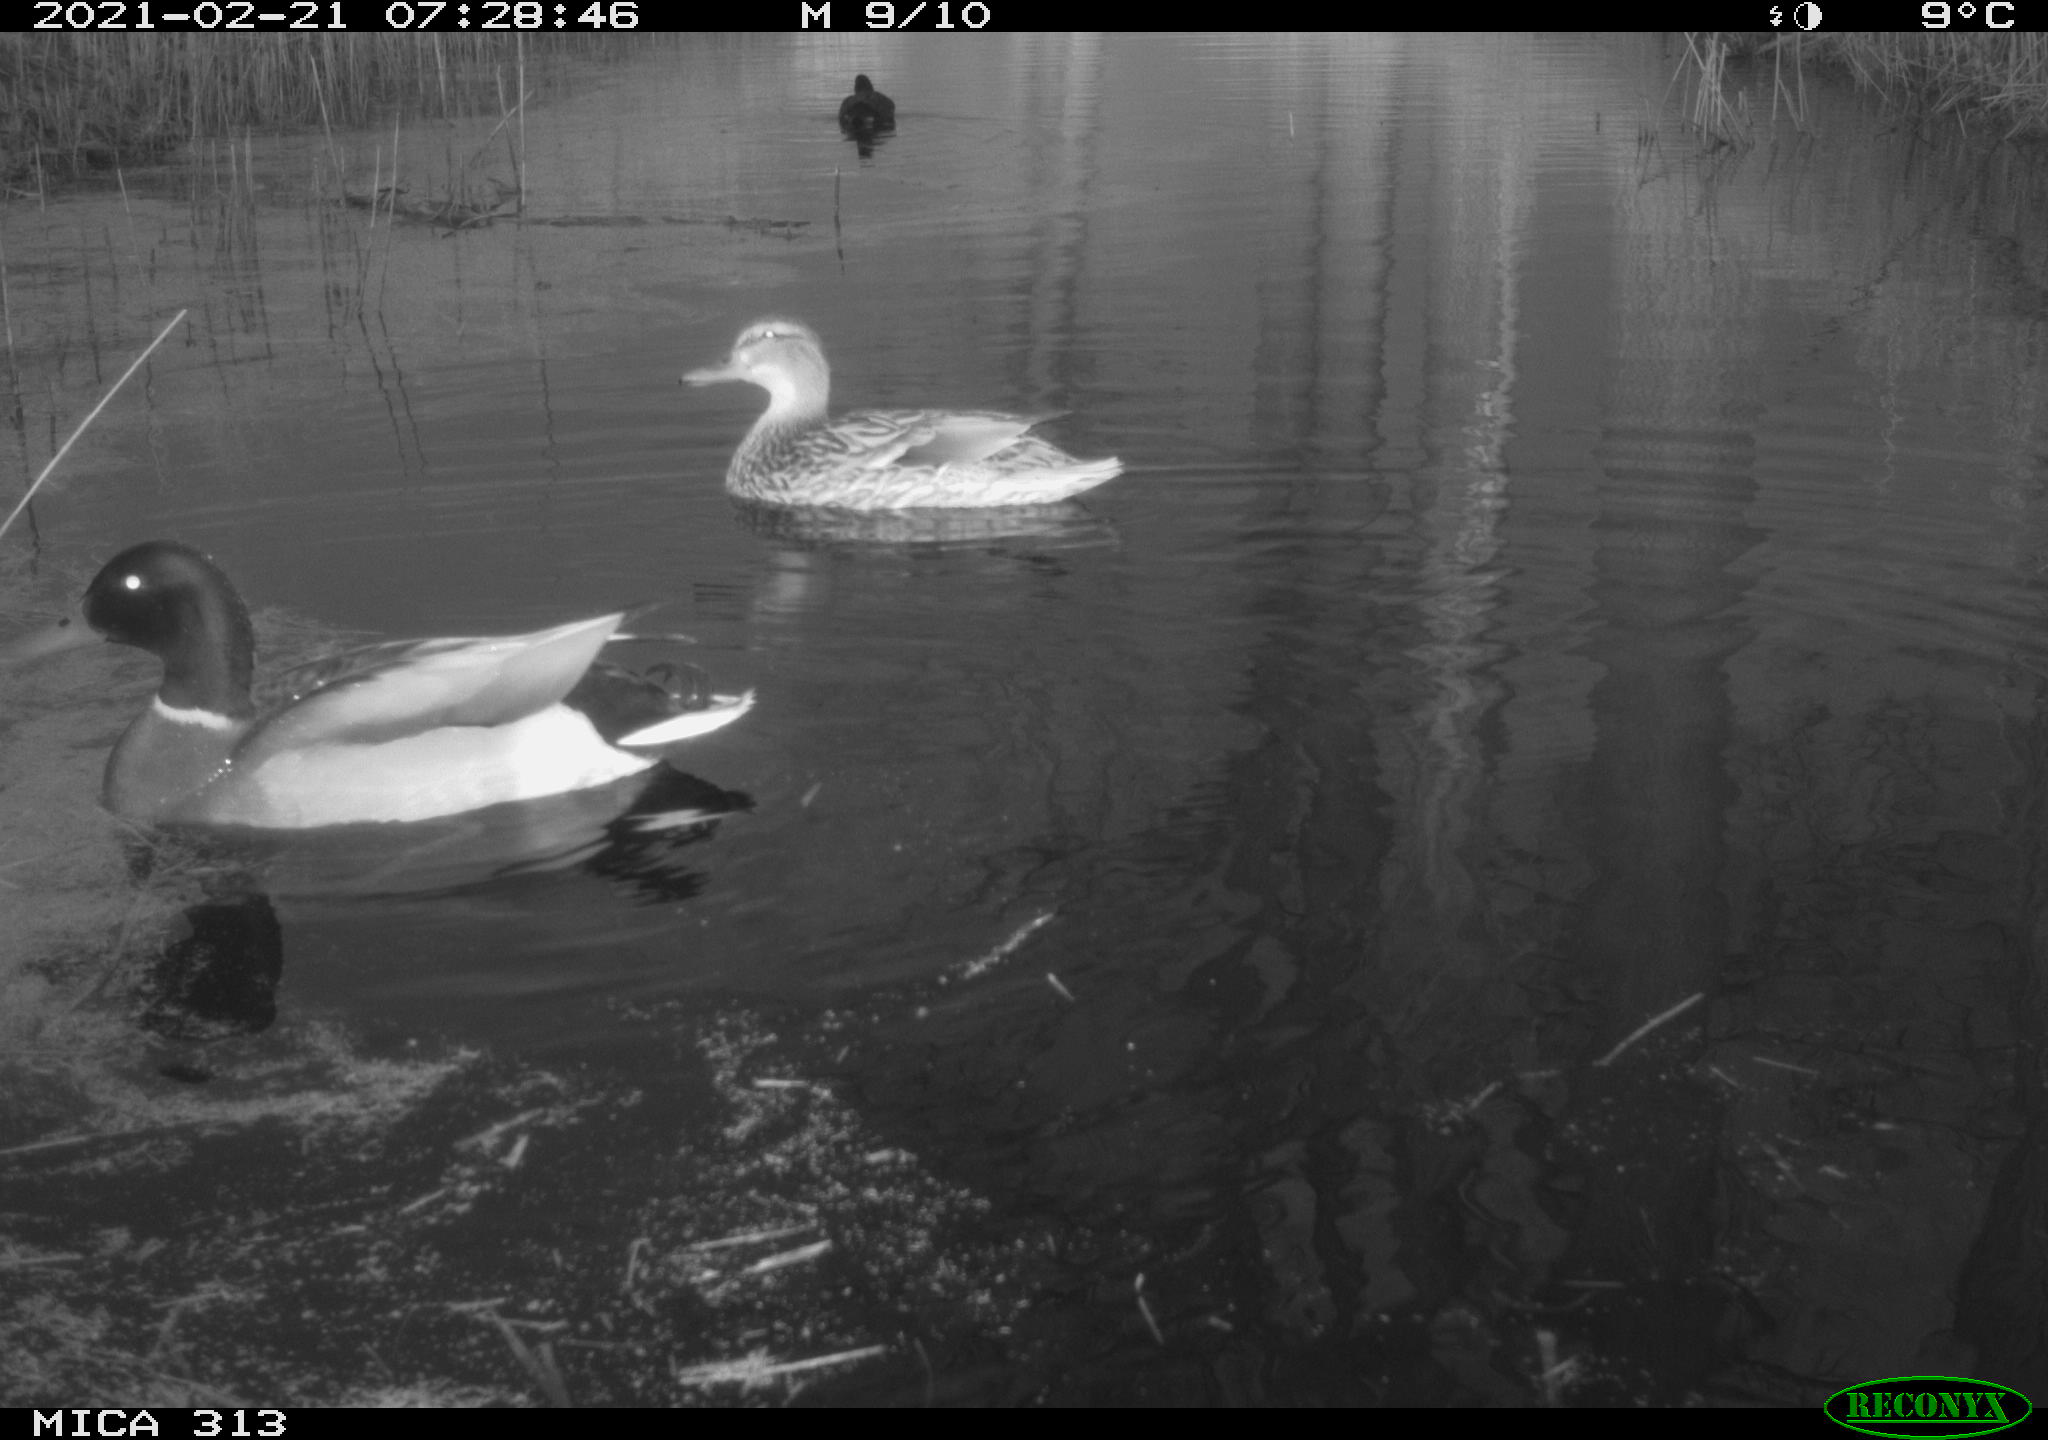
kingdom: Animalia
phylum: Chordata
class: Aves
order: Gruiformes
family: Rallidae
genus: Fulica
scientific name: Fulica atra
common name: Eurasian coot
